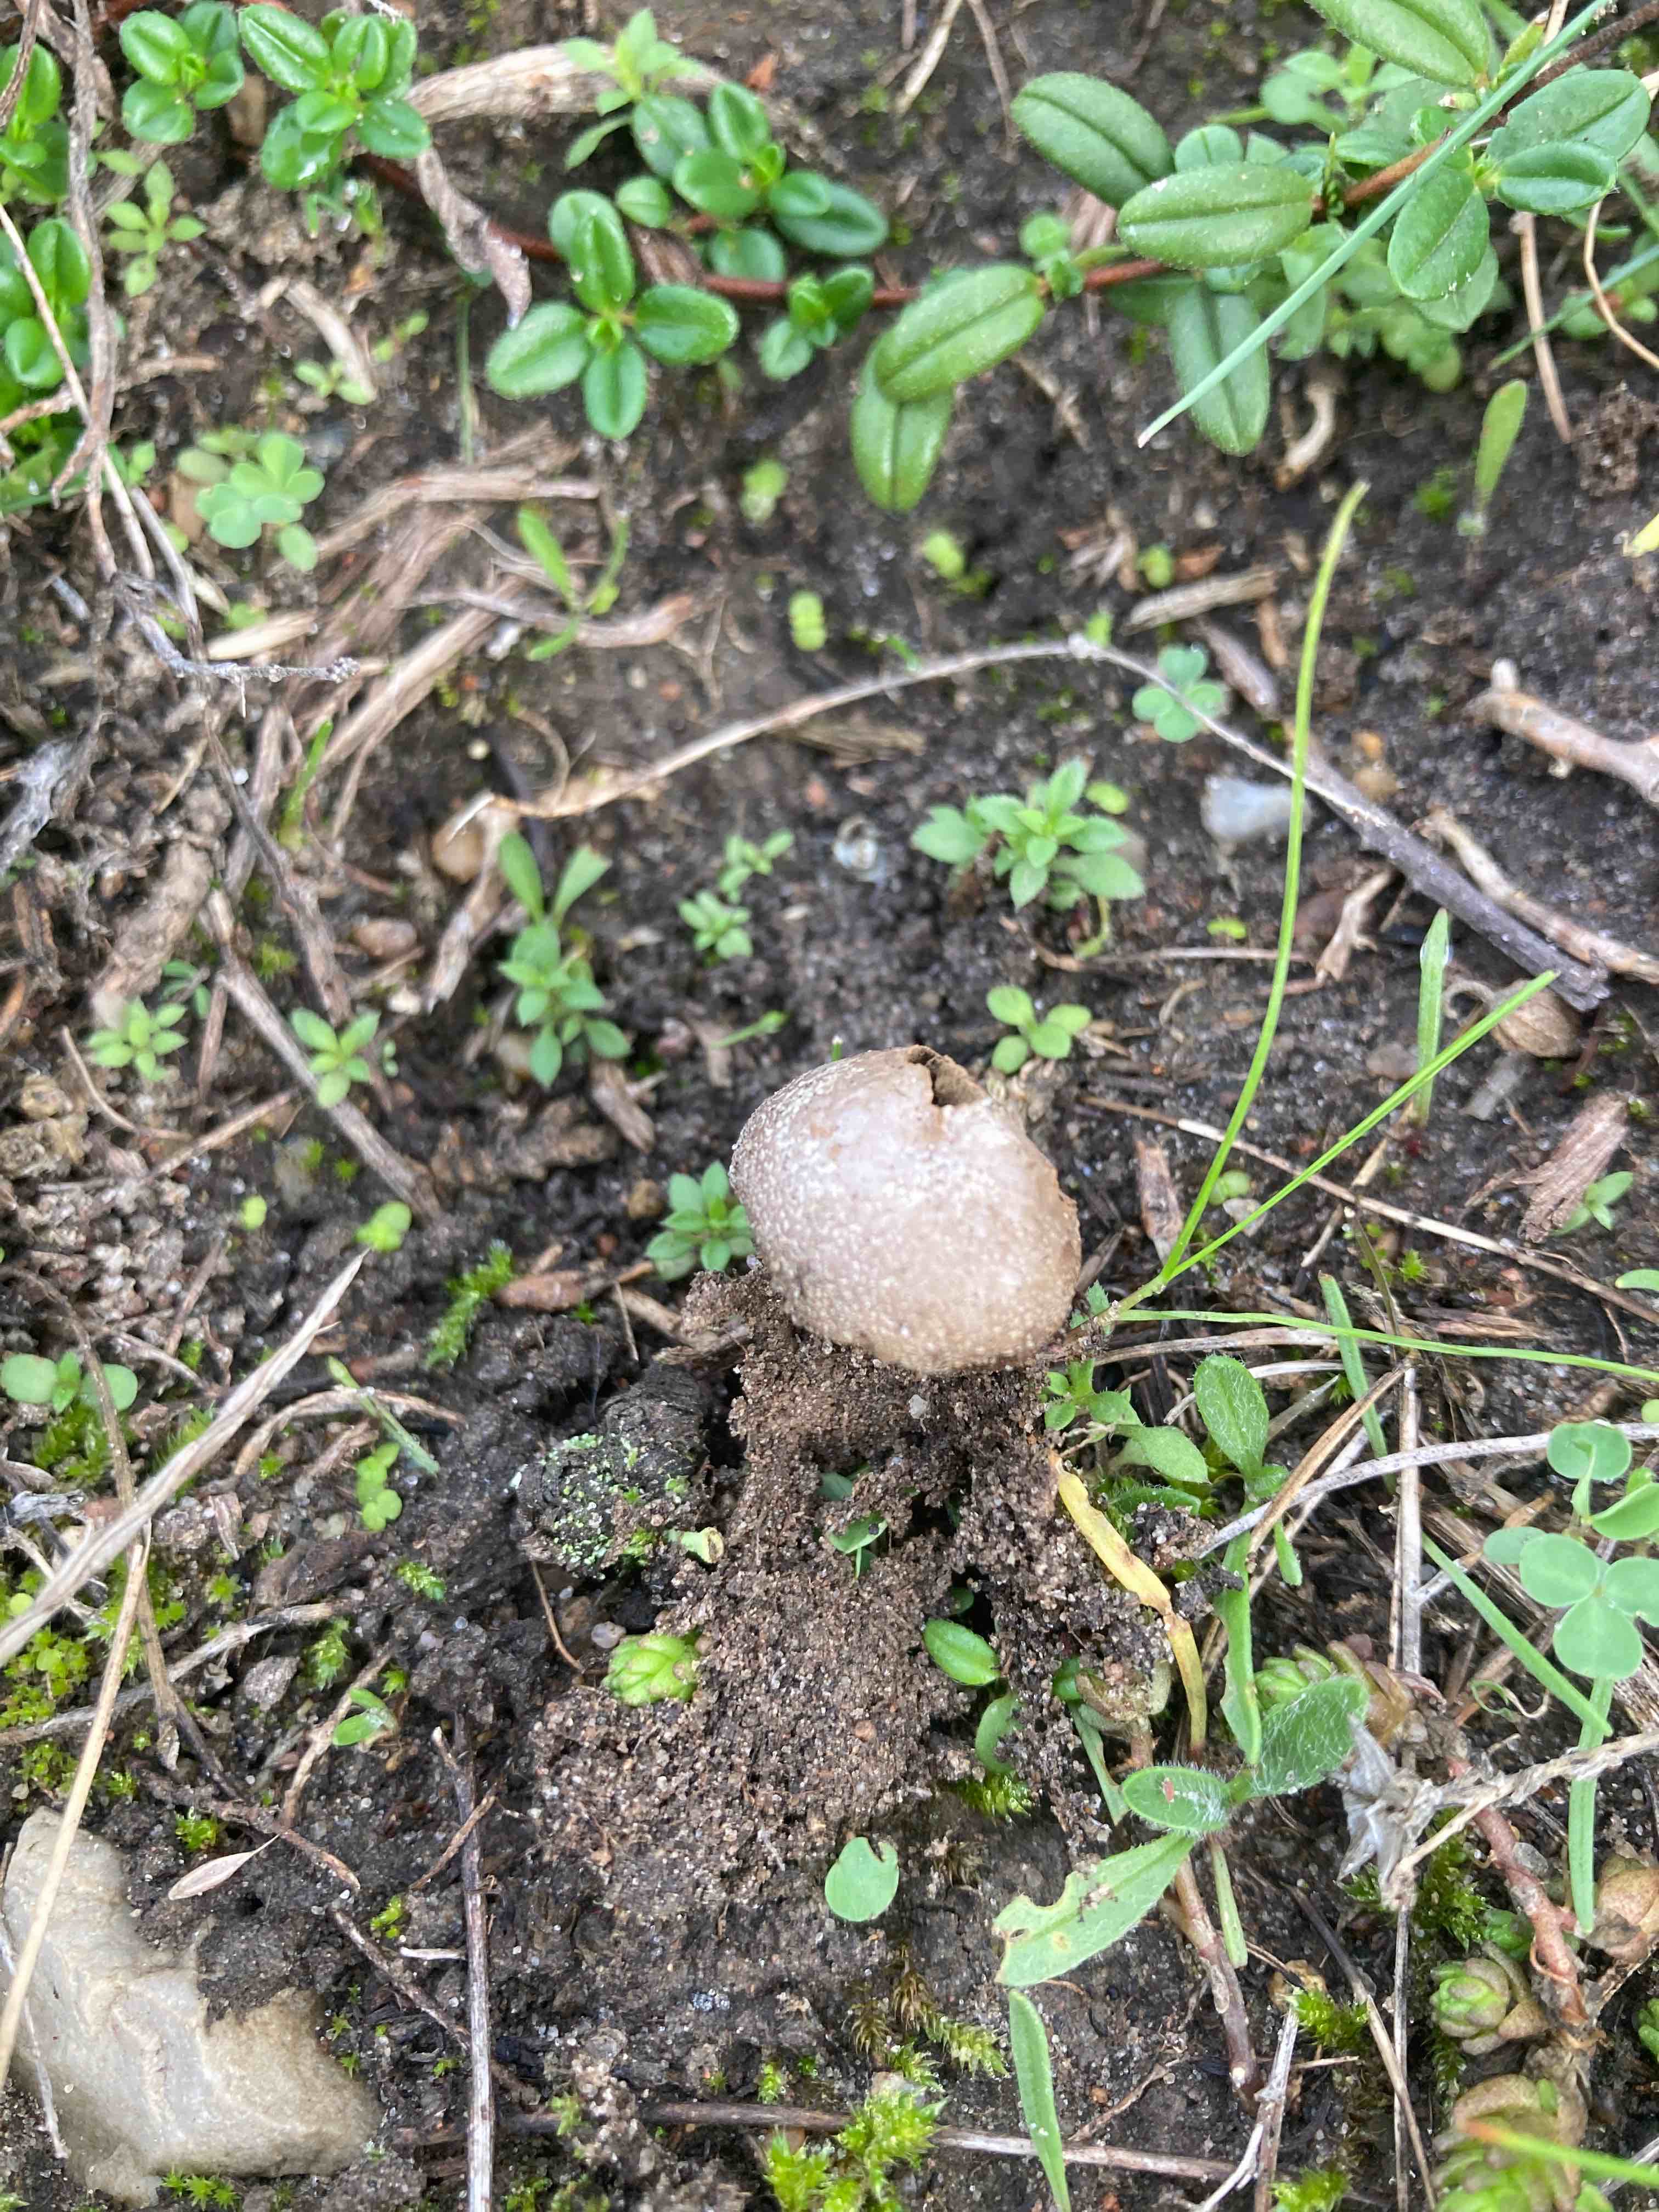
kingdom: Fungi
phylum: Basidiomycota
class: Agaricomycetes
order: Agaricales
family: Lycoperdaceae
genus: Bovista
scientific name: Bovista furfuracea
